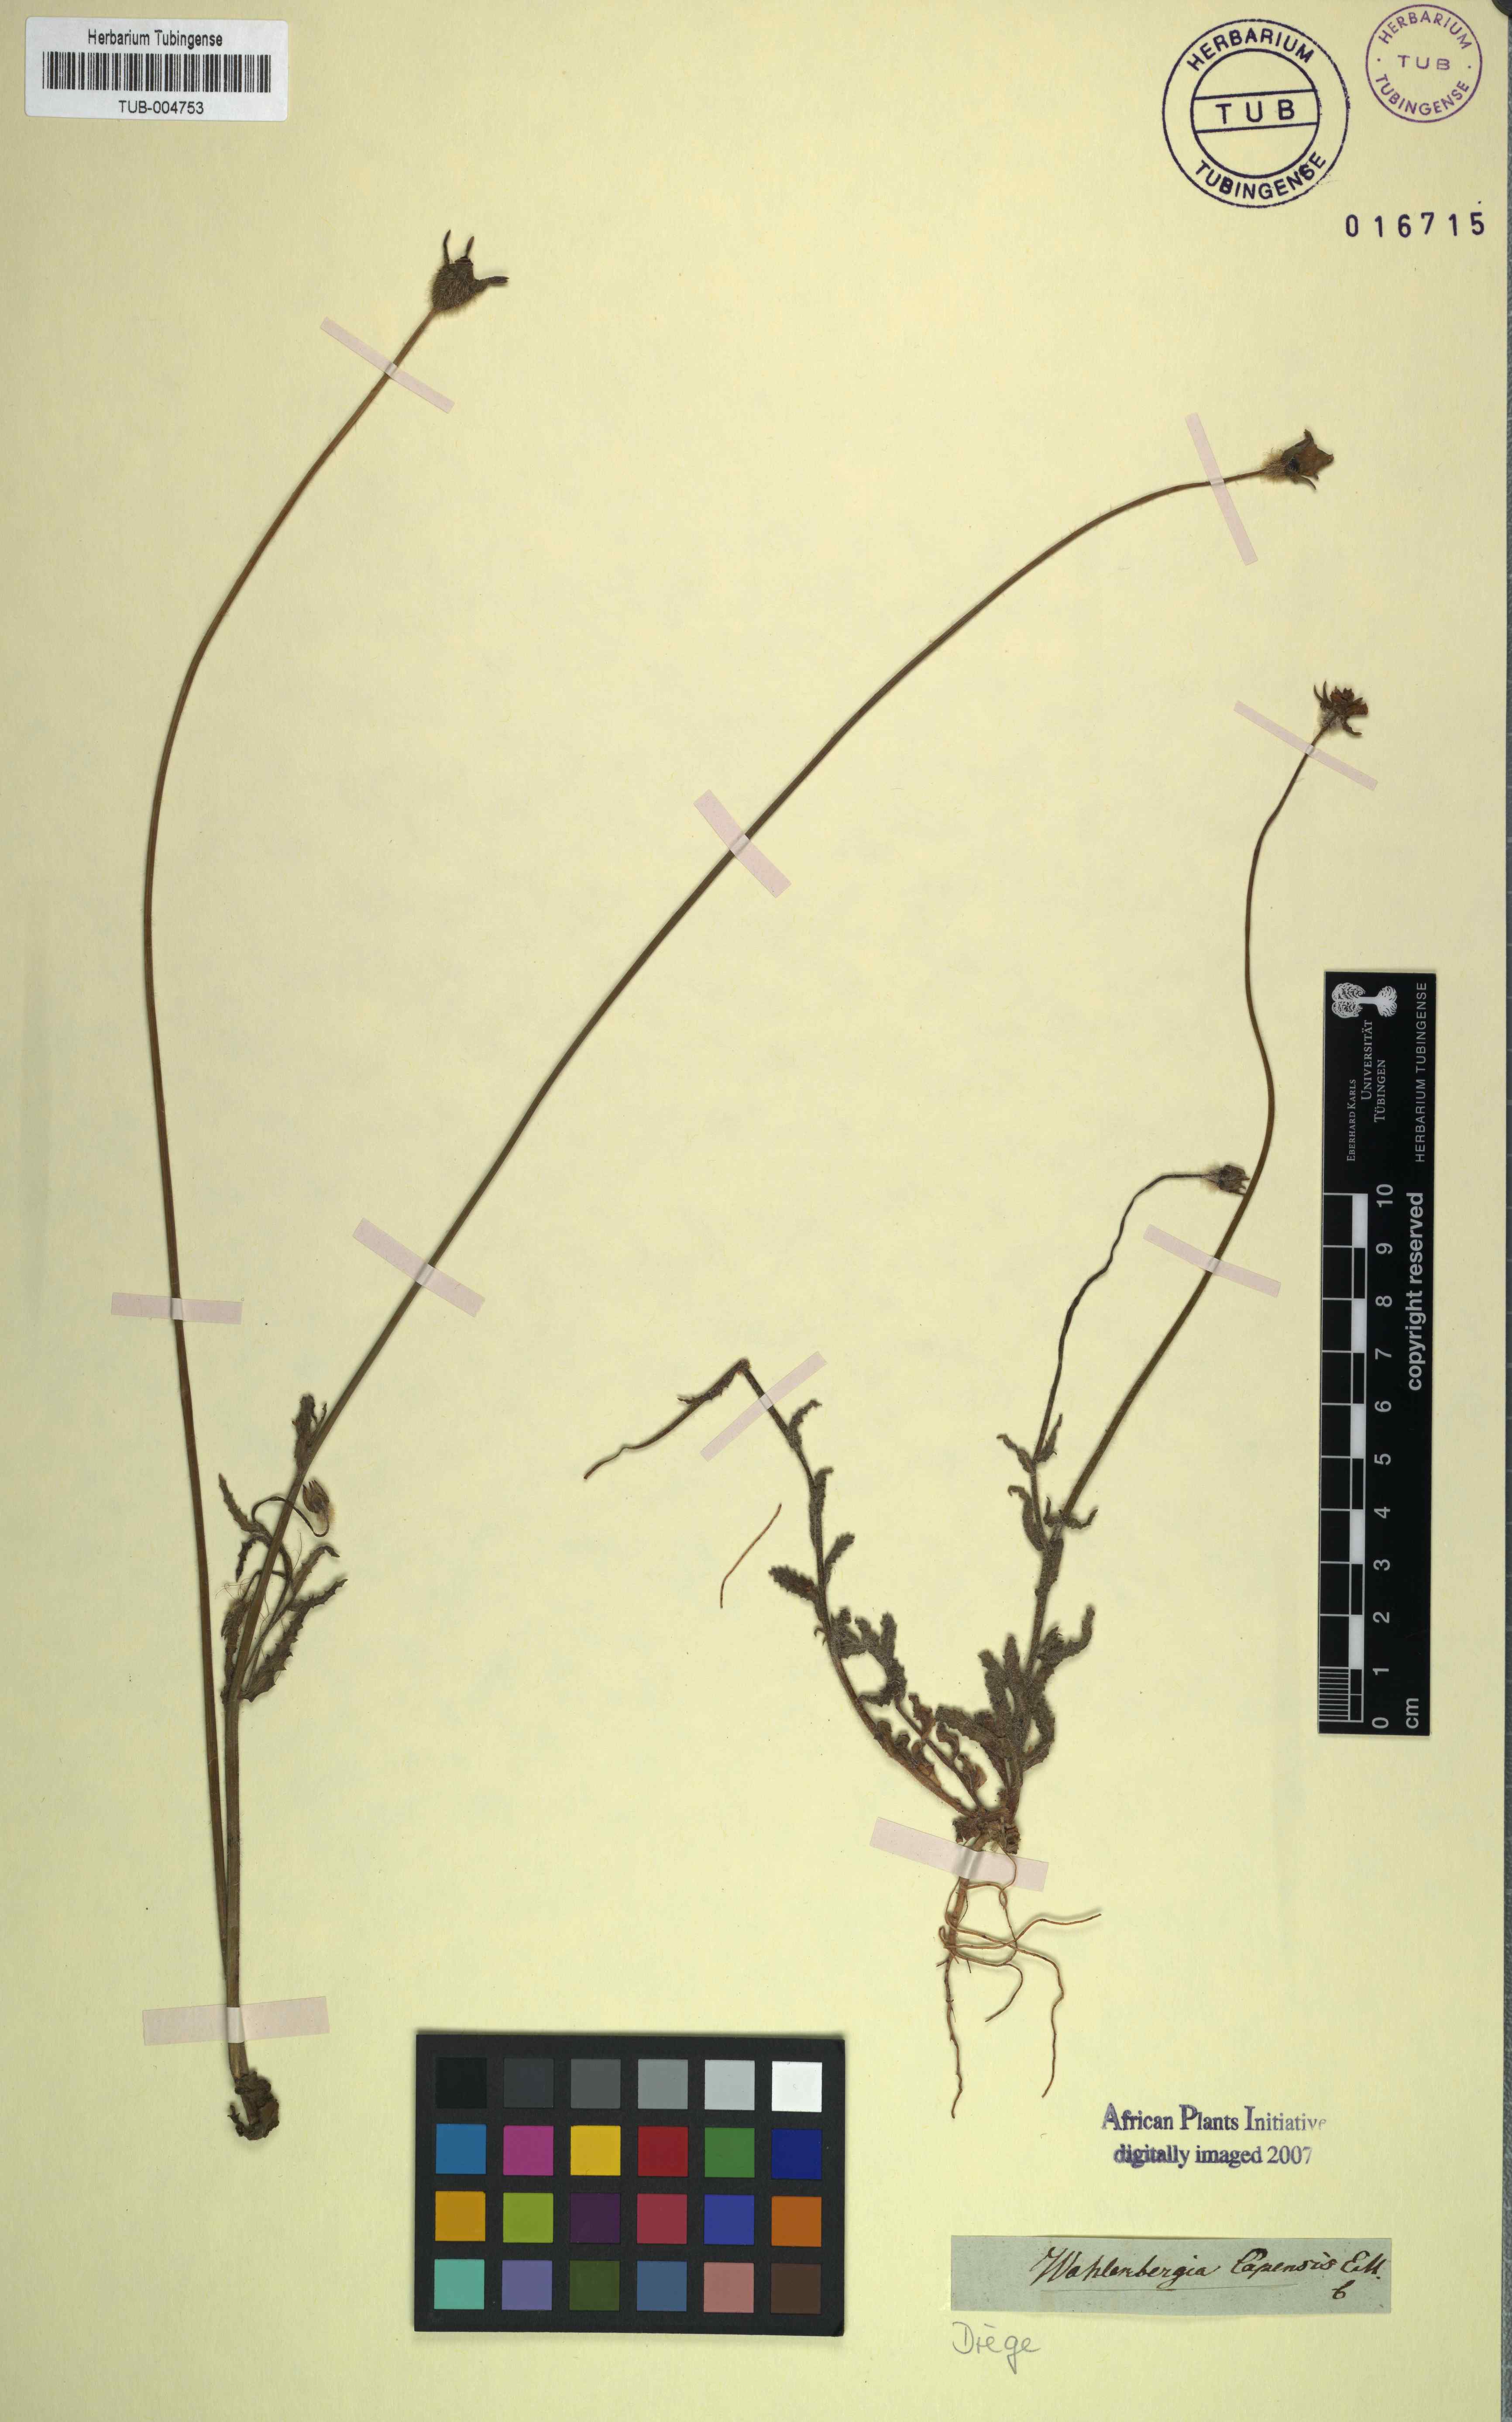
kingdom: Plantae
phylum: Tracheophyta
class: Magnoliopsida
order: Asterales
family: Campanulaceae
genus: Wahlenbergia
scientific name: Wahlenbergia capensis
